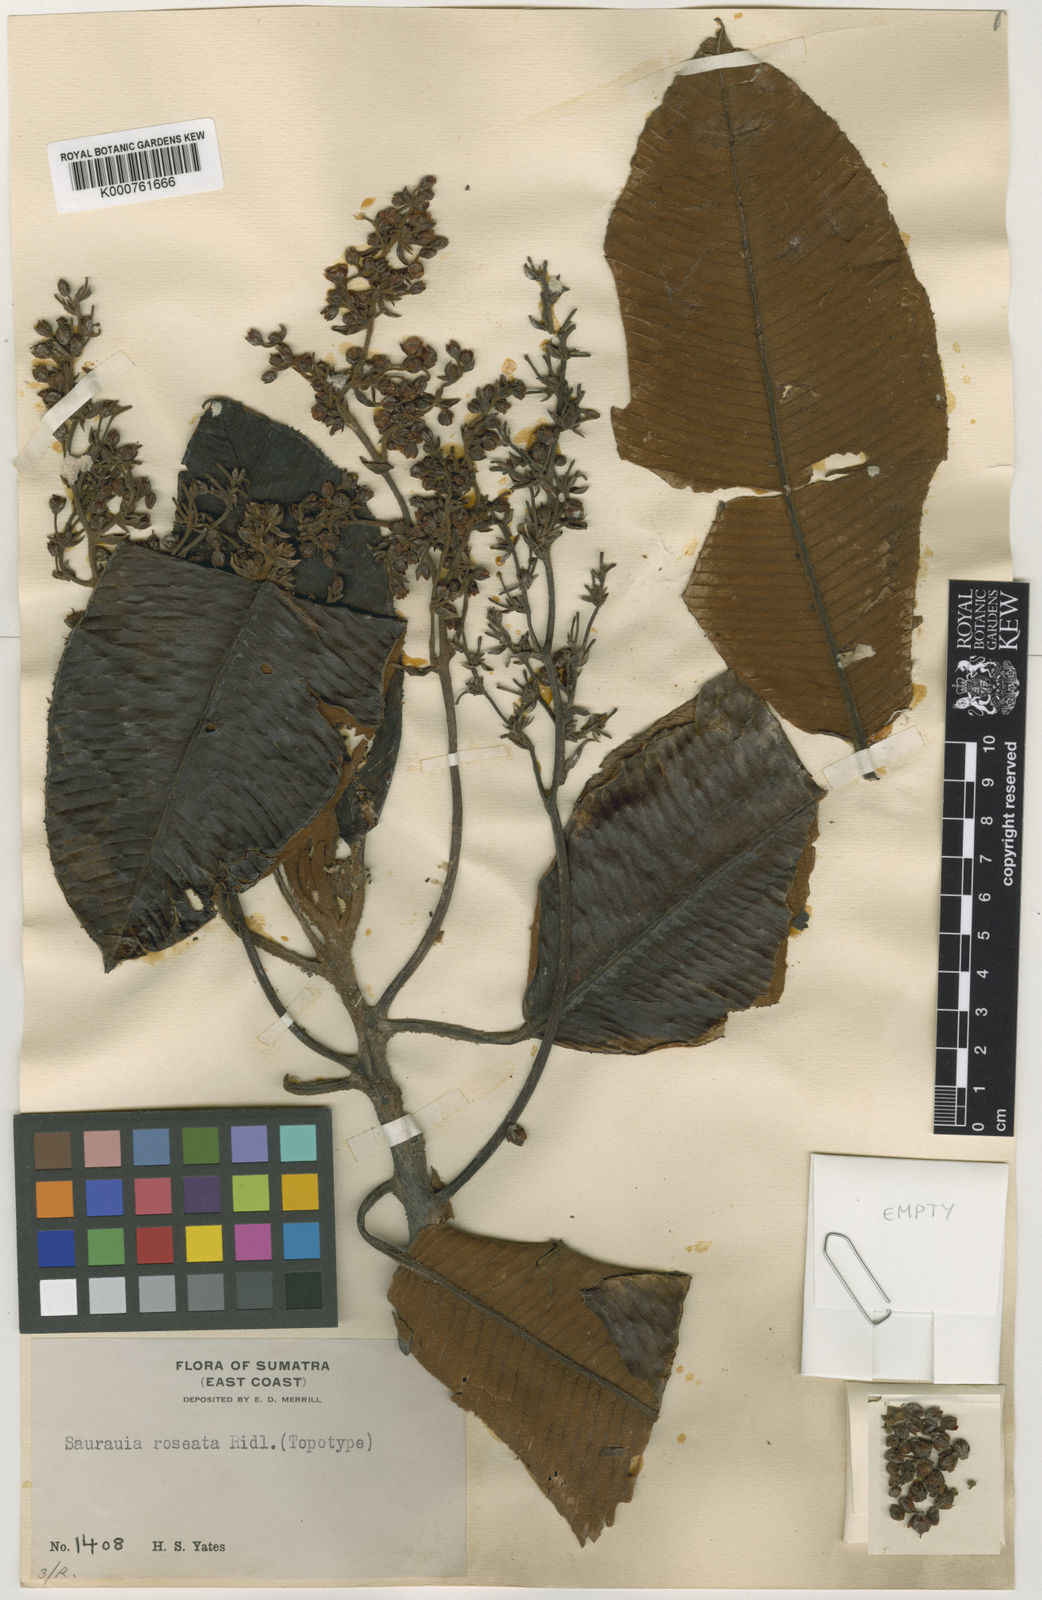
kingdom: Plantae
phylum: Tracheophyta
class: Magnoliopsida
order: Ericales
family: Actinidiaceae
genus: Saurauia
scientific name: Saurauia
